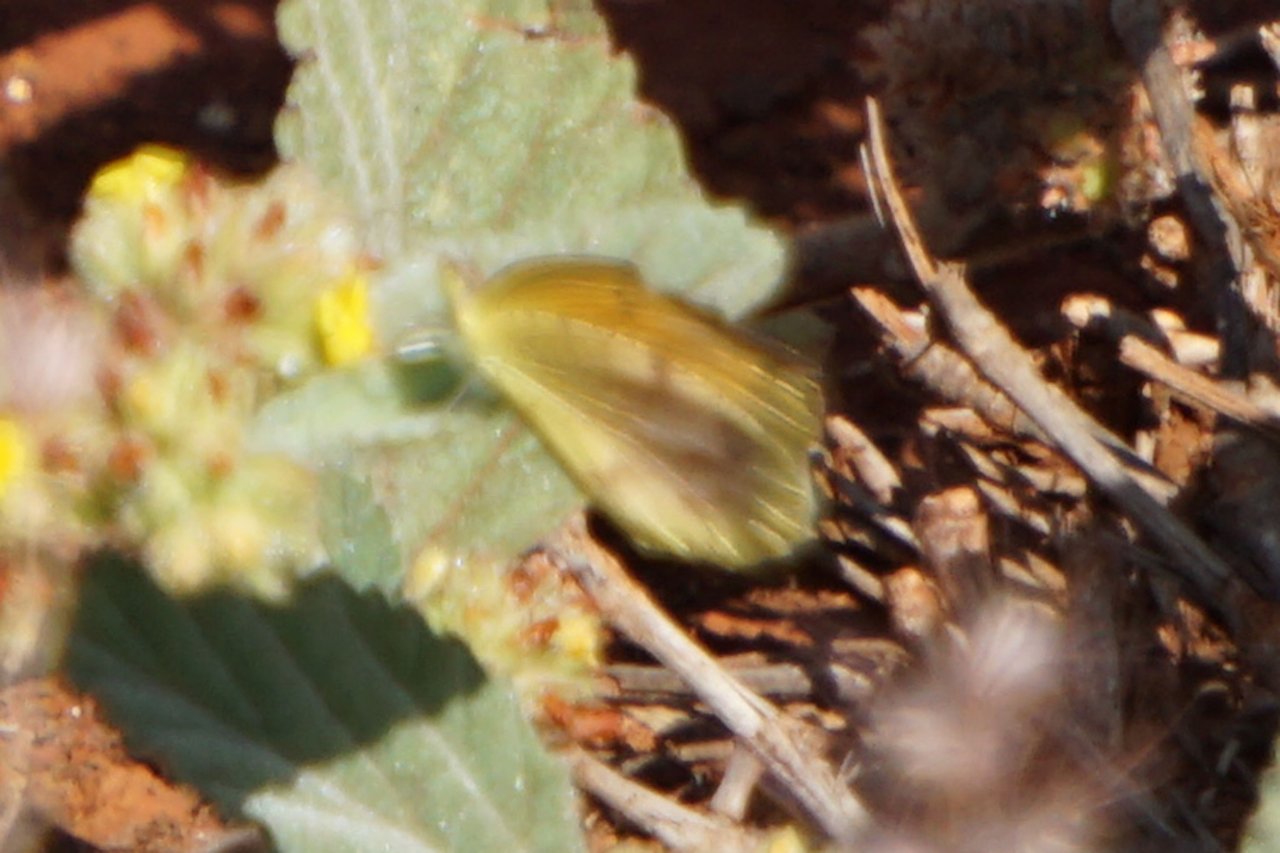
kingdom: Animalia
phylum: Arthropoda
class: Insecta
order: Lepidoptera
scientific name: Lepidoptera
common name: Butterflies
